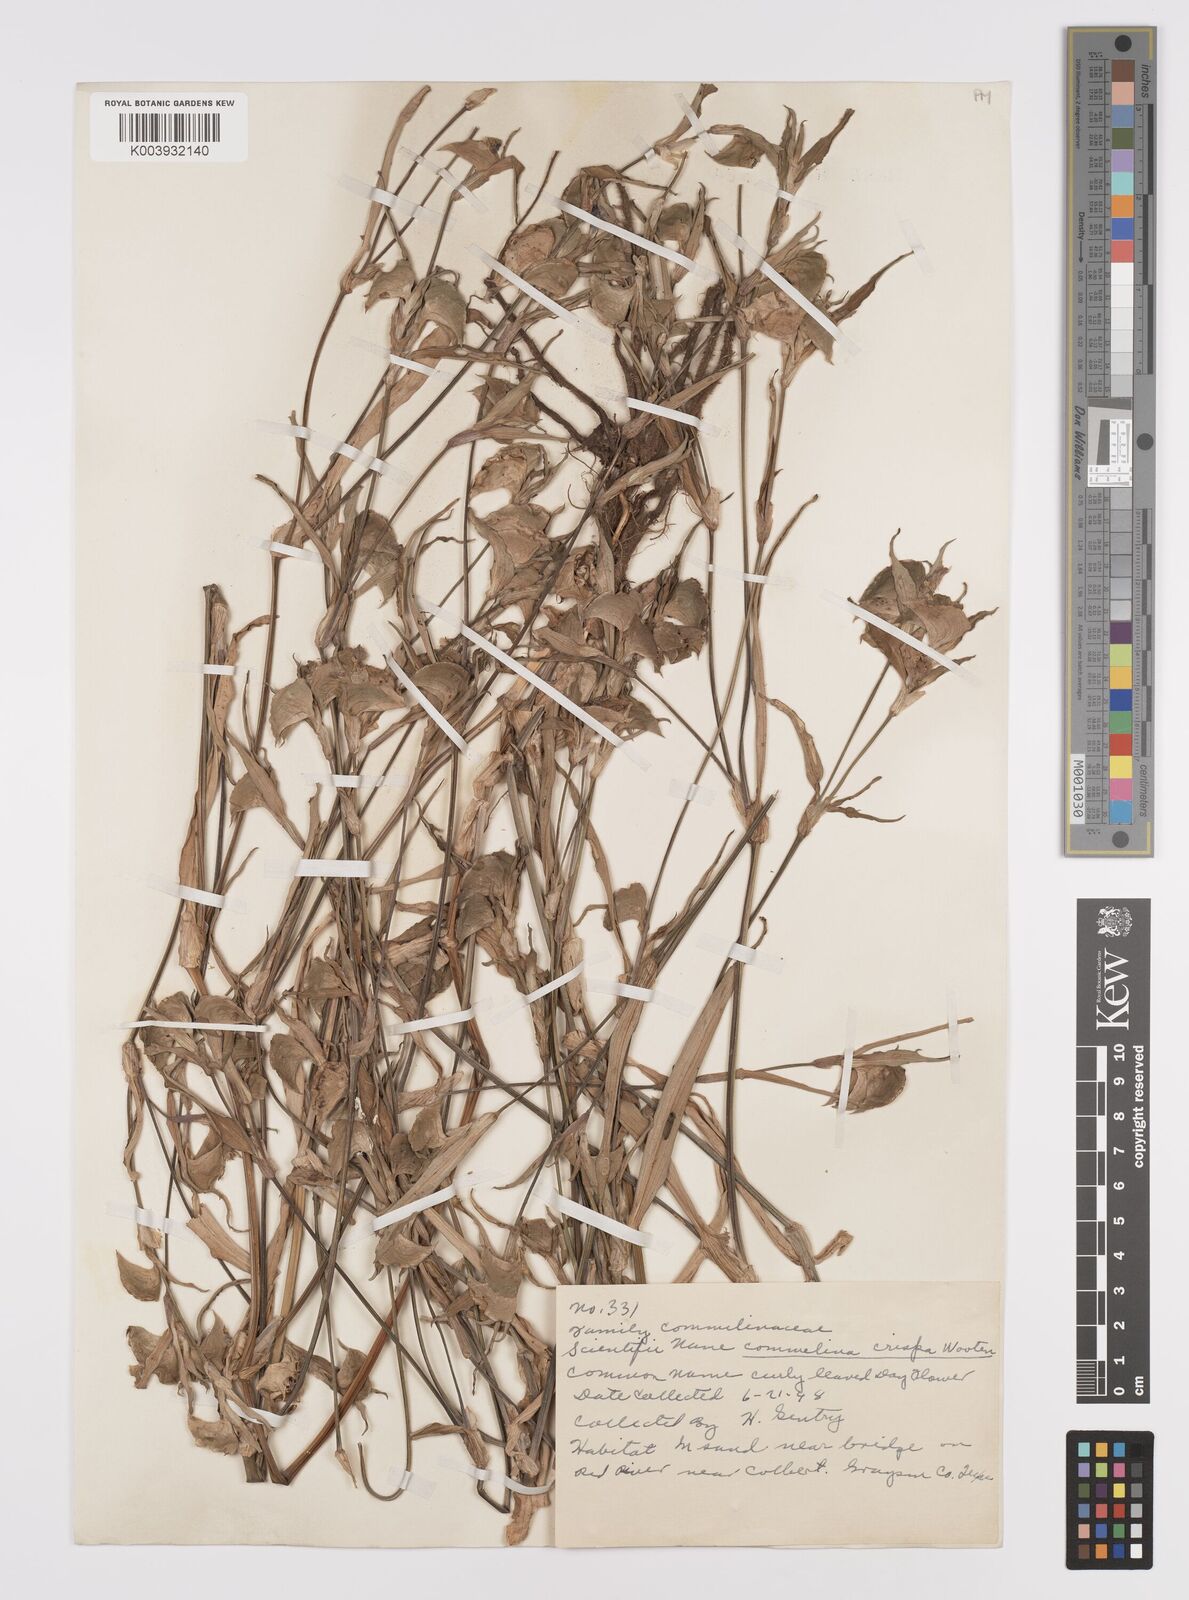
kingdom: Plantae
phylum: Tracheophyta
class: Liliopsida
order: Commelinales
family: Commelinaceae
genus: Commelina
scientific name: Commelina erecta
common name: Blousel blommetjie
